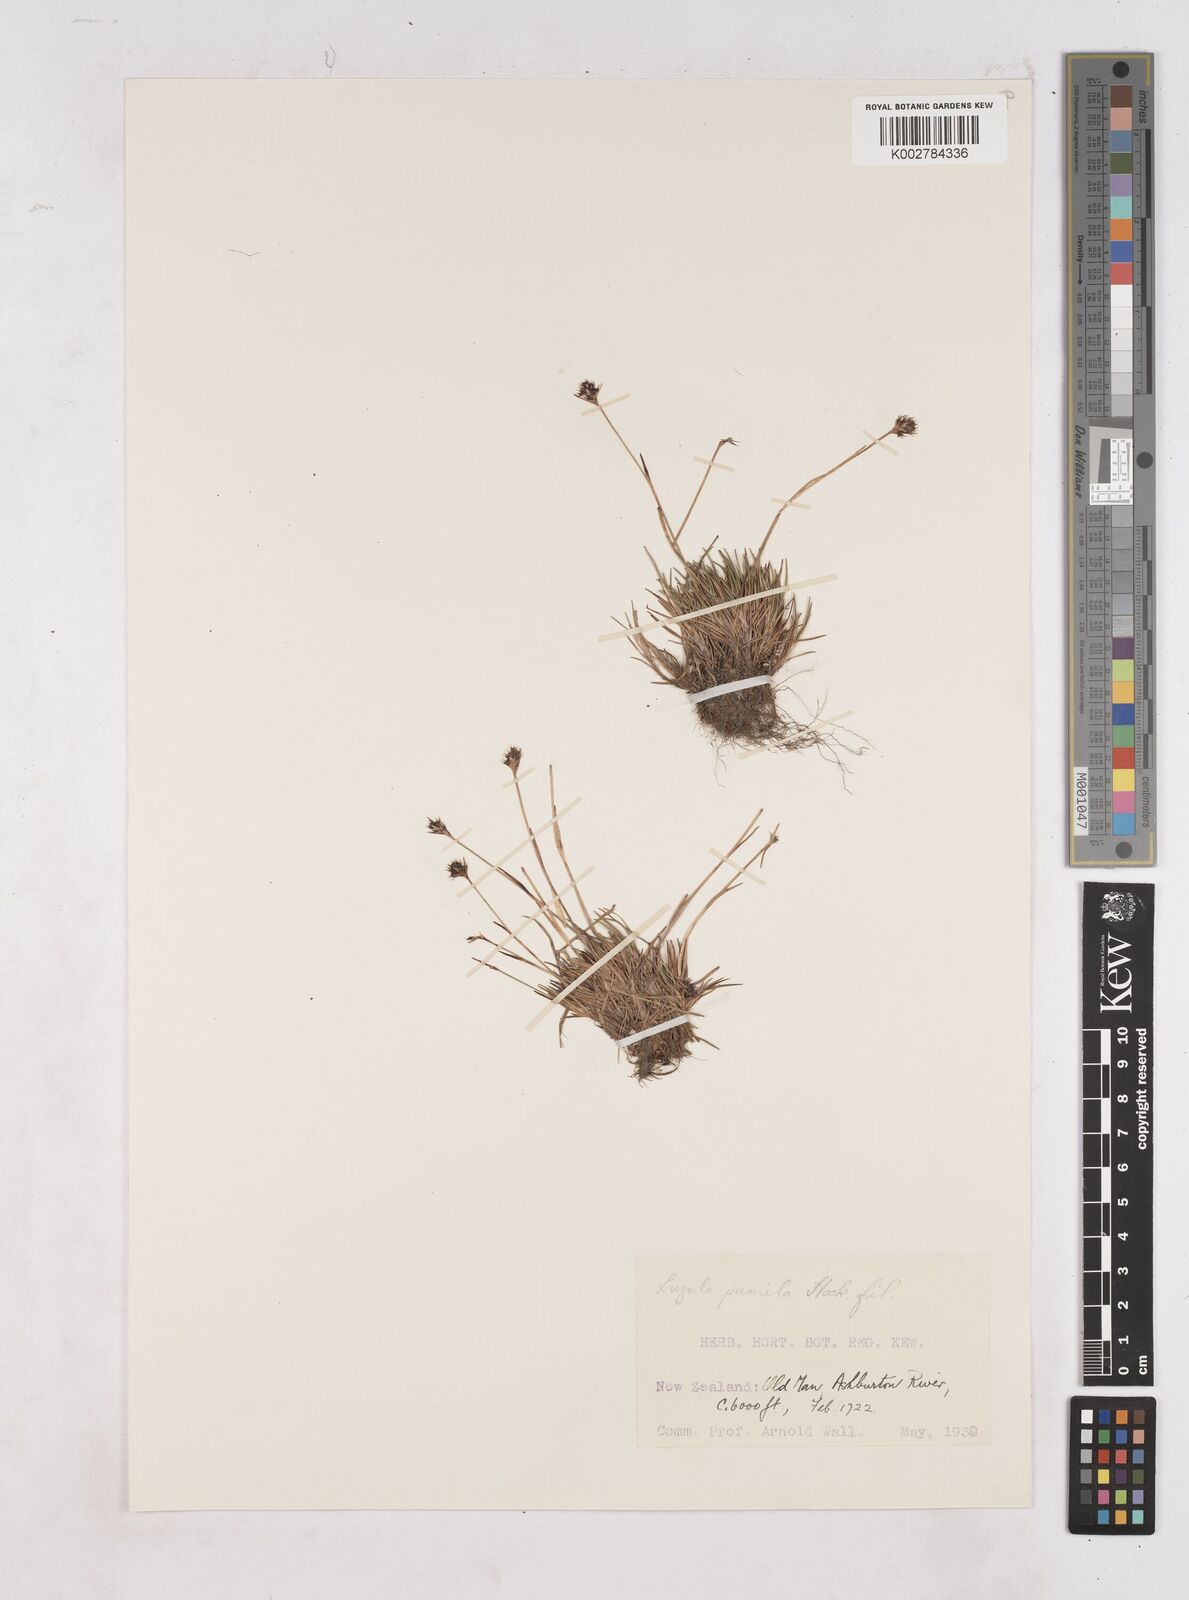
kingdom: Plantae
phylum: Tracheophyta
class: Liliopsida
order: Poales
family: Juncaceae
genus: Luzula
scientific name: Luzula pumila
